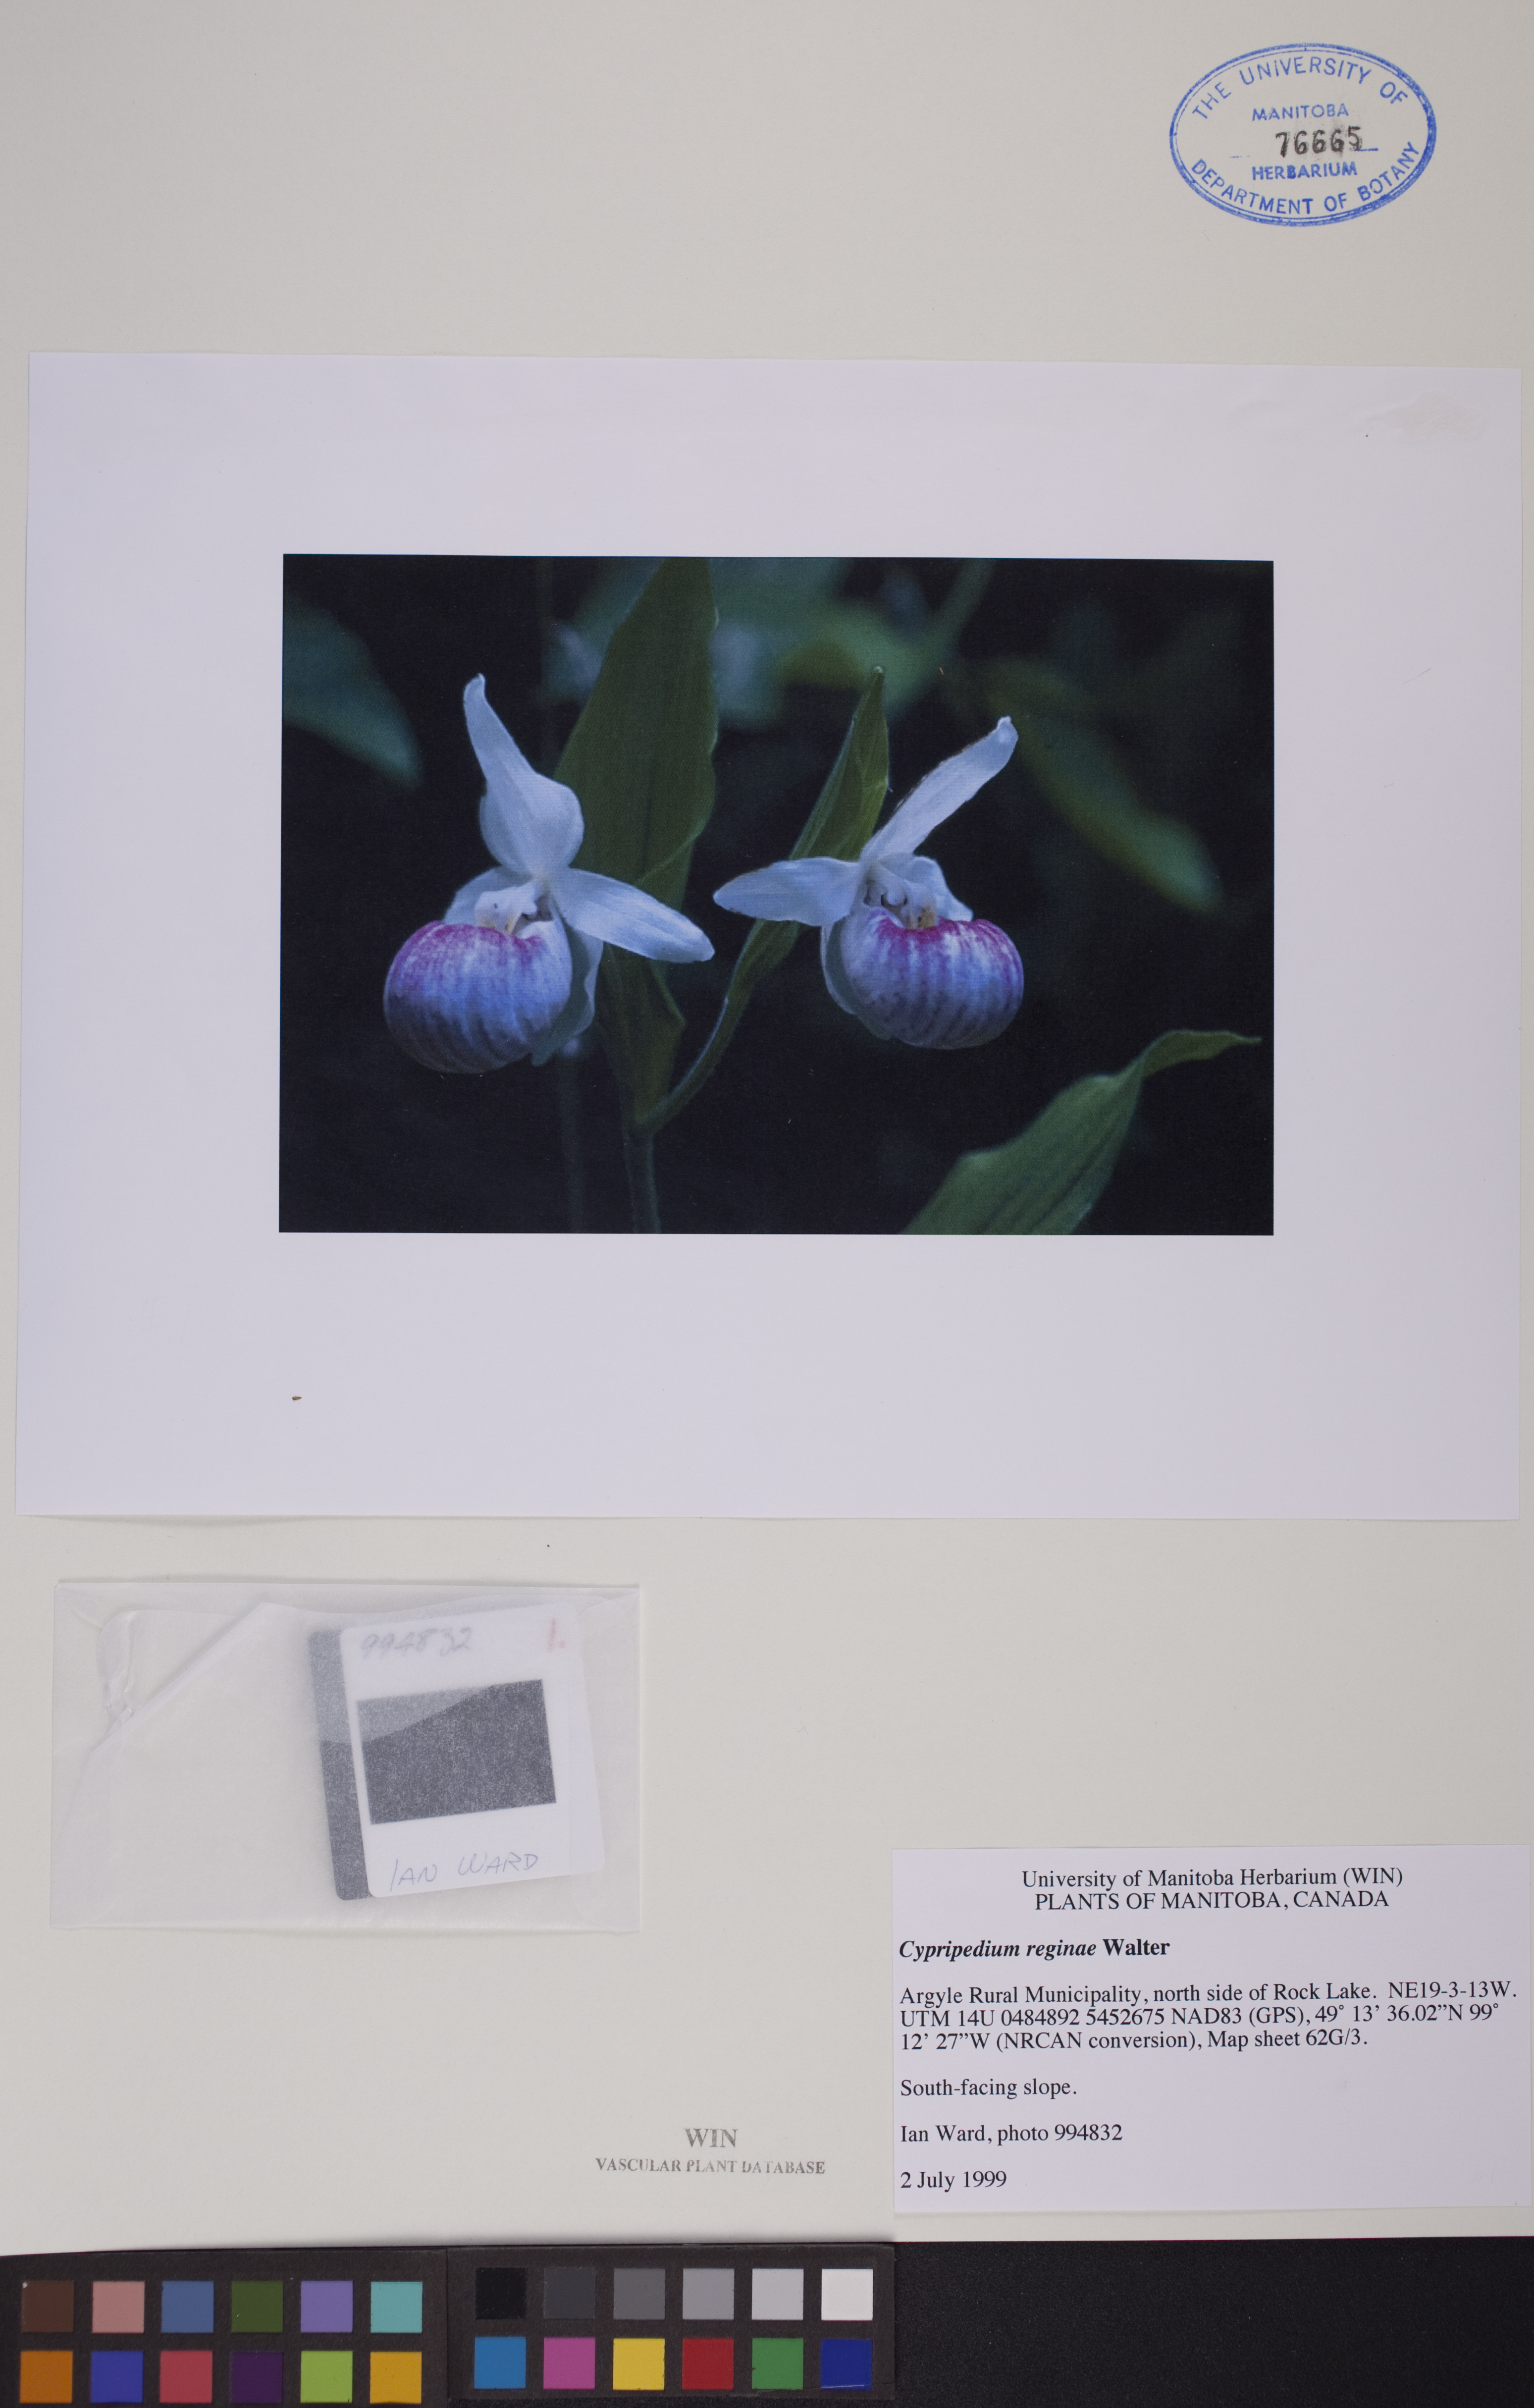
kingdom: Plantae
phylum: Tracheophyta
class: Liliopsida
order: Asparagales
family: Orchidaceae
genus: Cypripedium
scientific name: Cypripedium reginae
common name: Queen lady's-slipper
